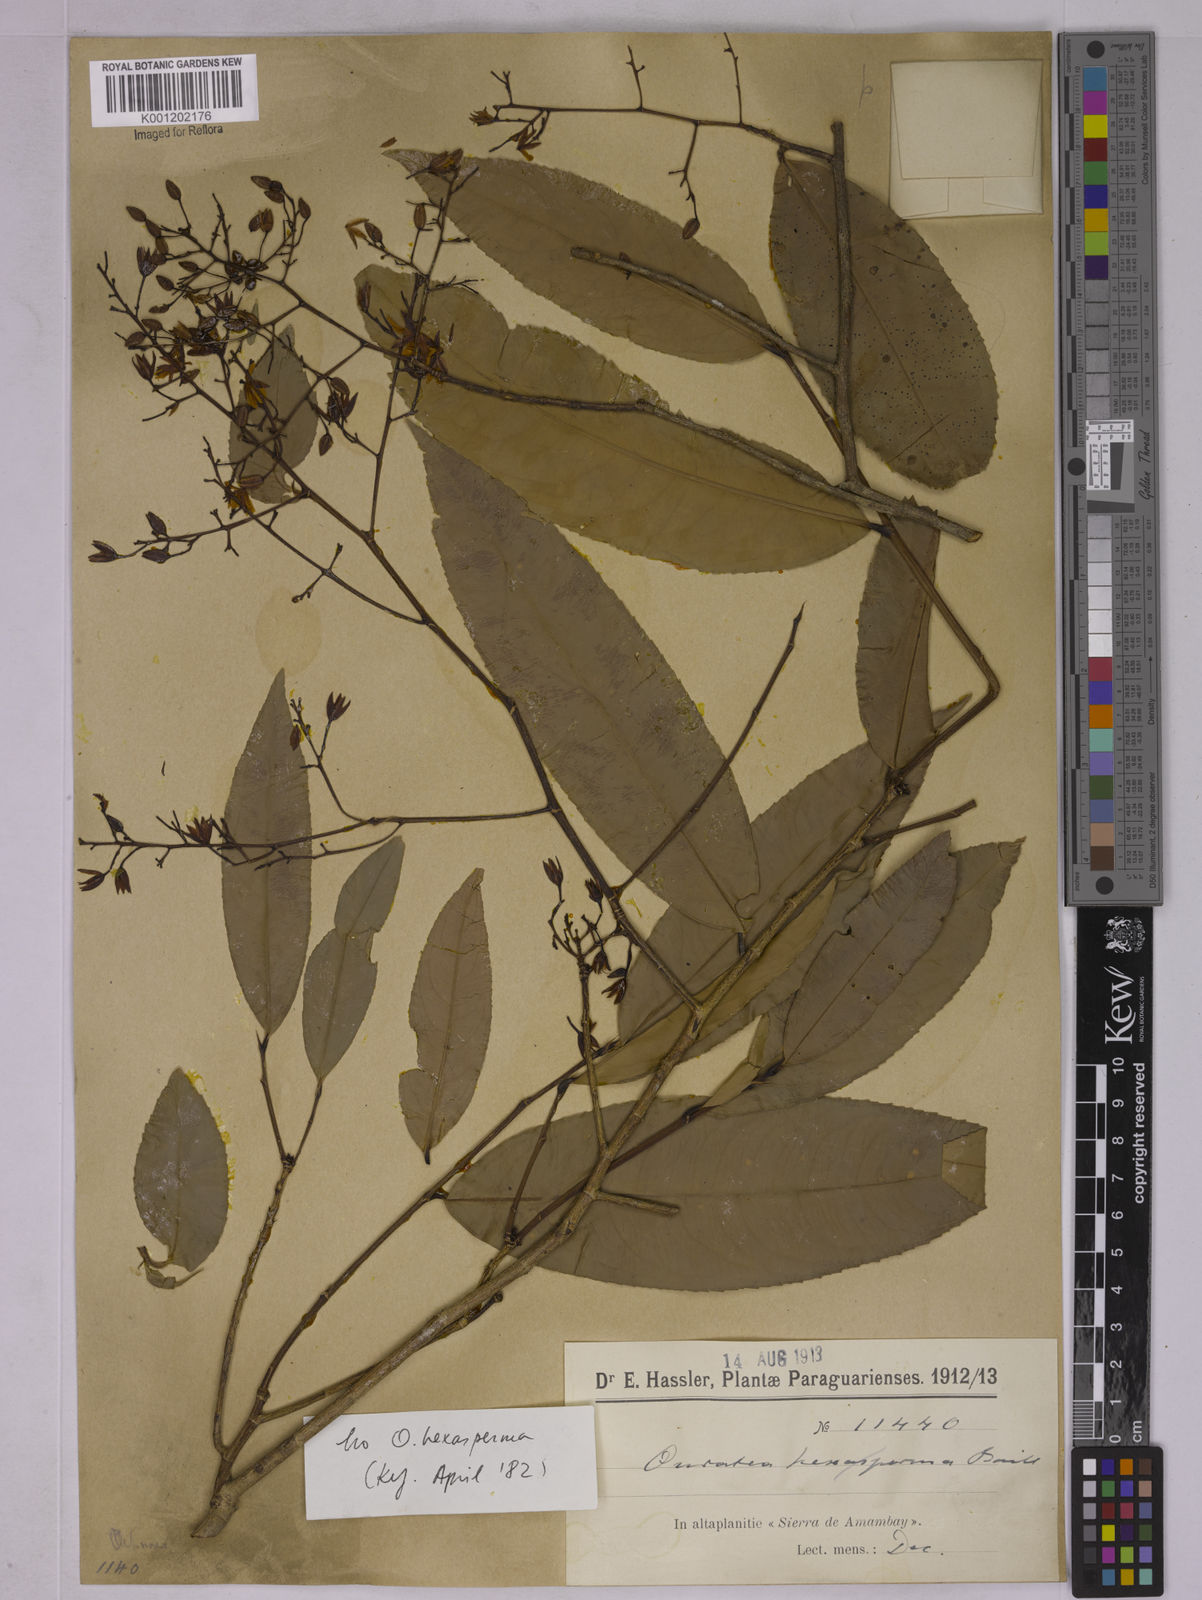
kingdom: Plantae
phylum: Tracheophyta
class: Magnoliopsida
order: Malpighiales
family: Ochnaceae
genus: Ouratea
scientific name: Ouratea
